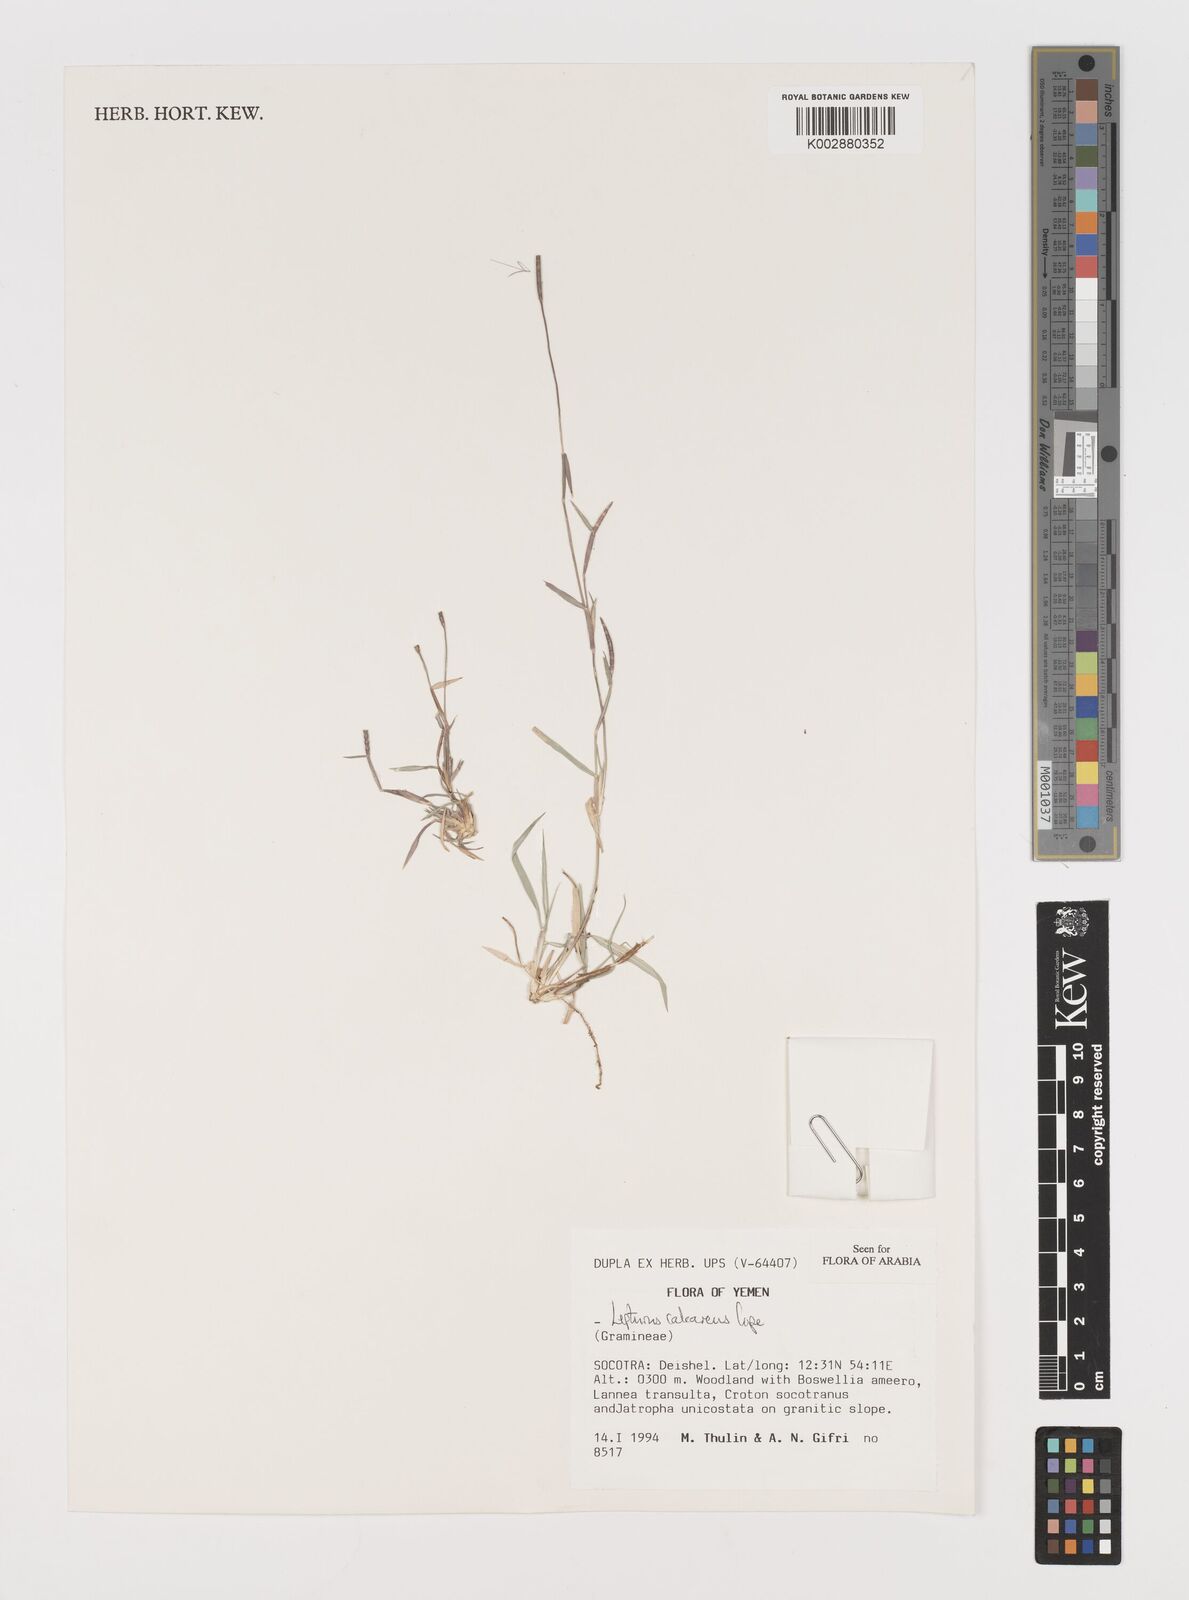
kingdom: Plantae
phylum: Tracheophyta
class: Liliopsida
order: Poales
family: Poaceae
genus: Lepturus
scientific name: Lepturus calcareus
